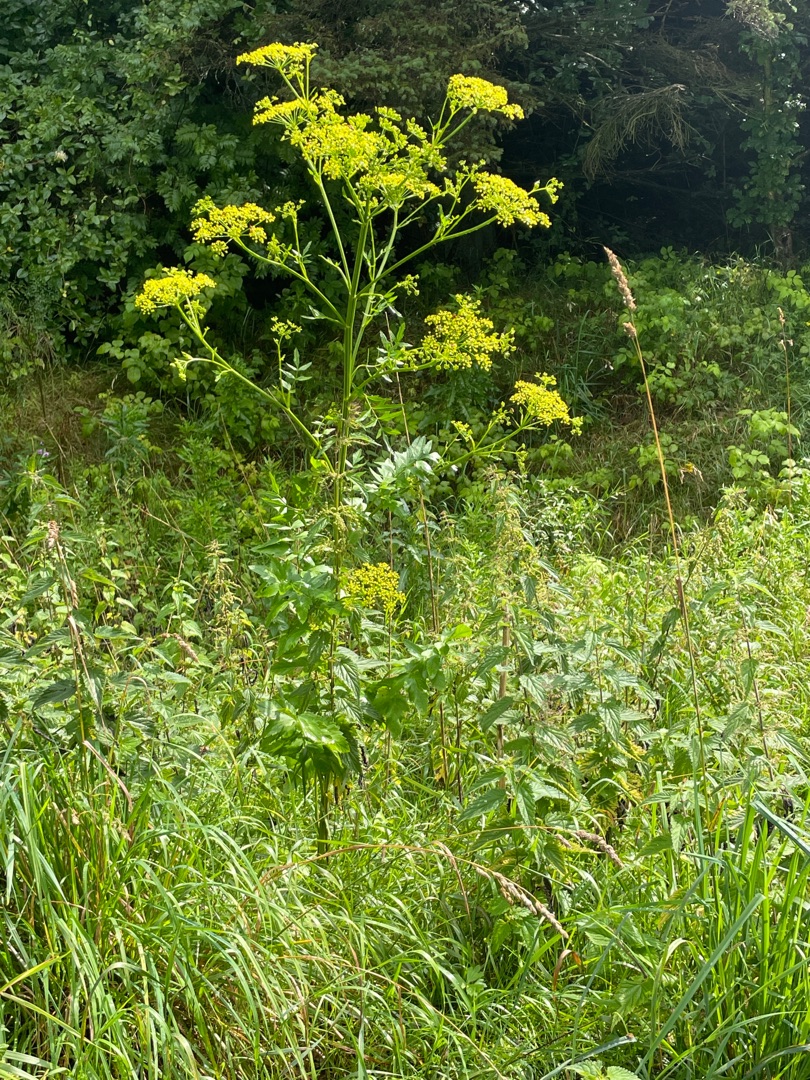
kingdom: Plantae
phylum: Tracheophyta
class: Magnoliopsida
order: Apiales
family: Apiaceae
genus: Pastinaca
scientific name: Pastinaca sativa
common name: Pastinak
